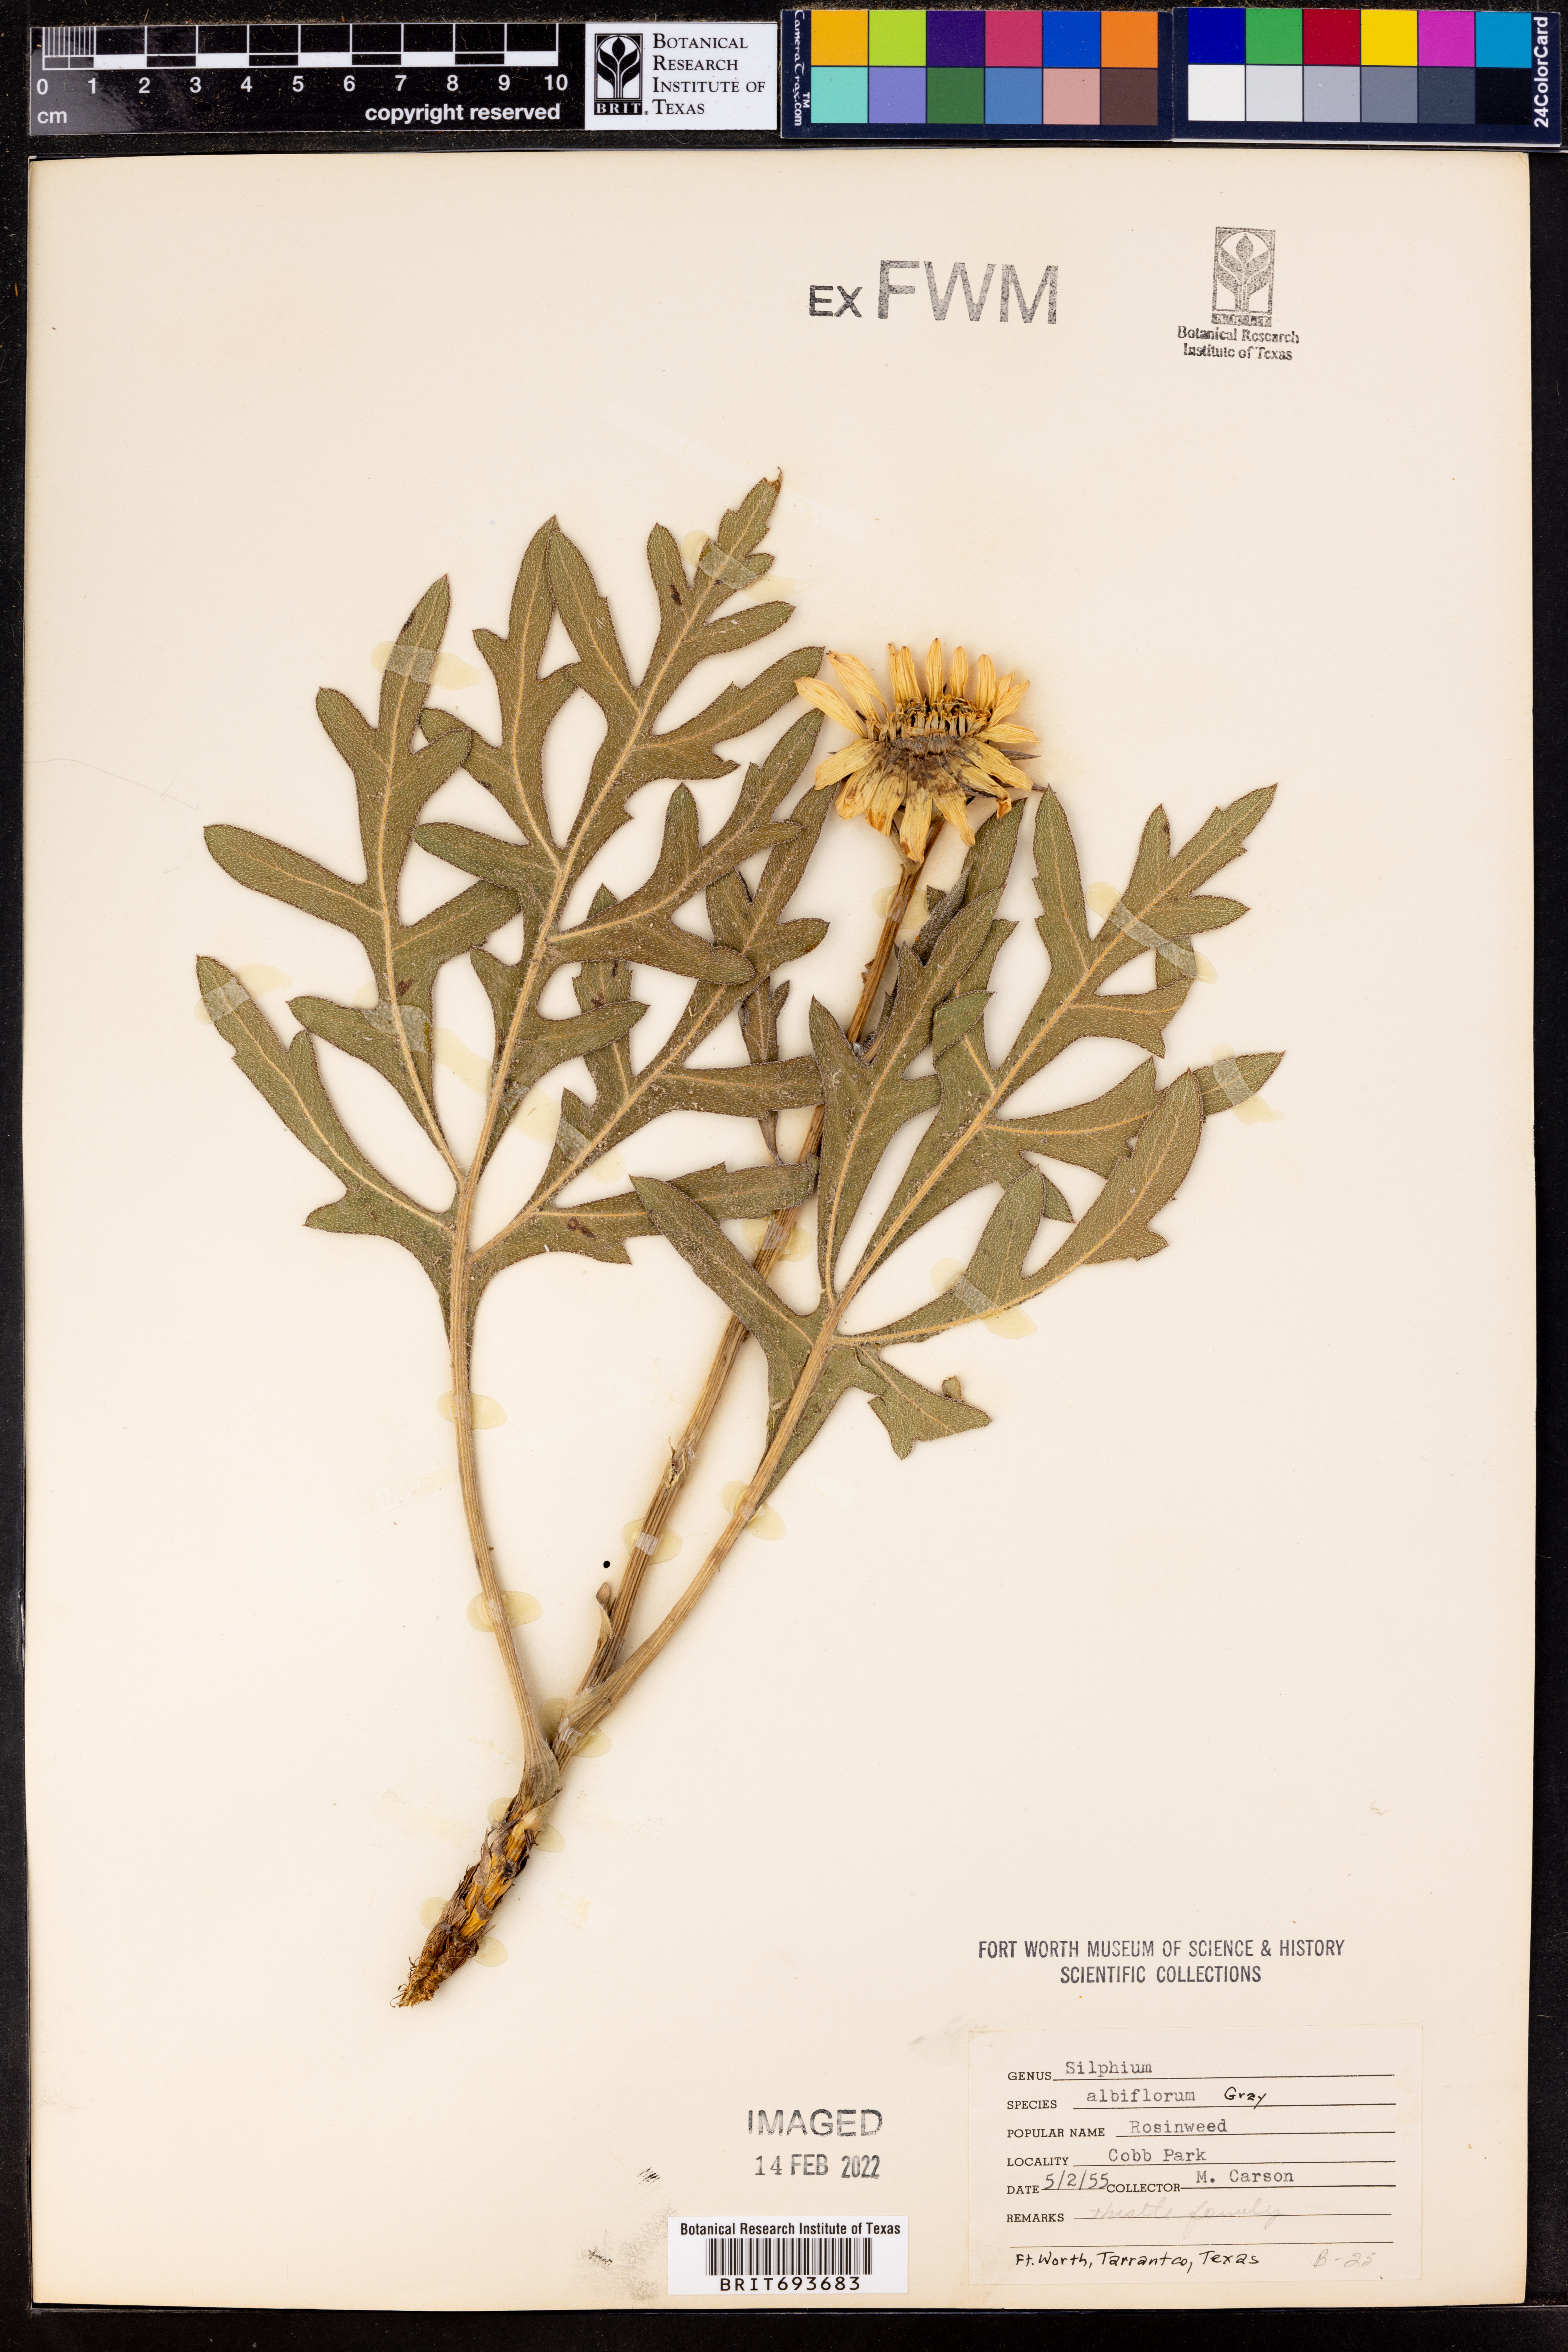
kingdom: Plantae
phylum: Tracheophyta
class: Magnoliopsida
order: Asterales
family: Asteraceae
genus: Silphium
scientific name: Silphium albiflorum
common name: White rosinweed
